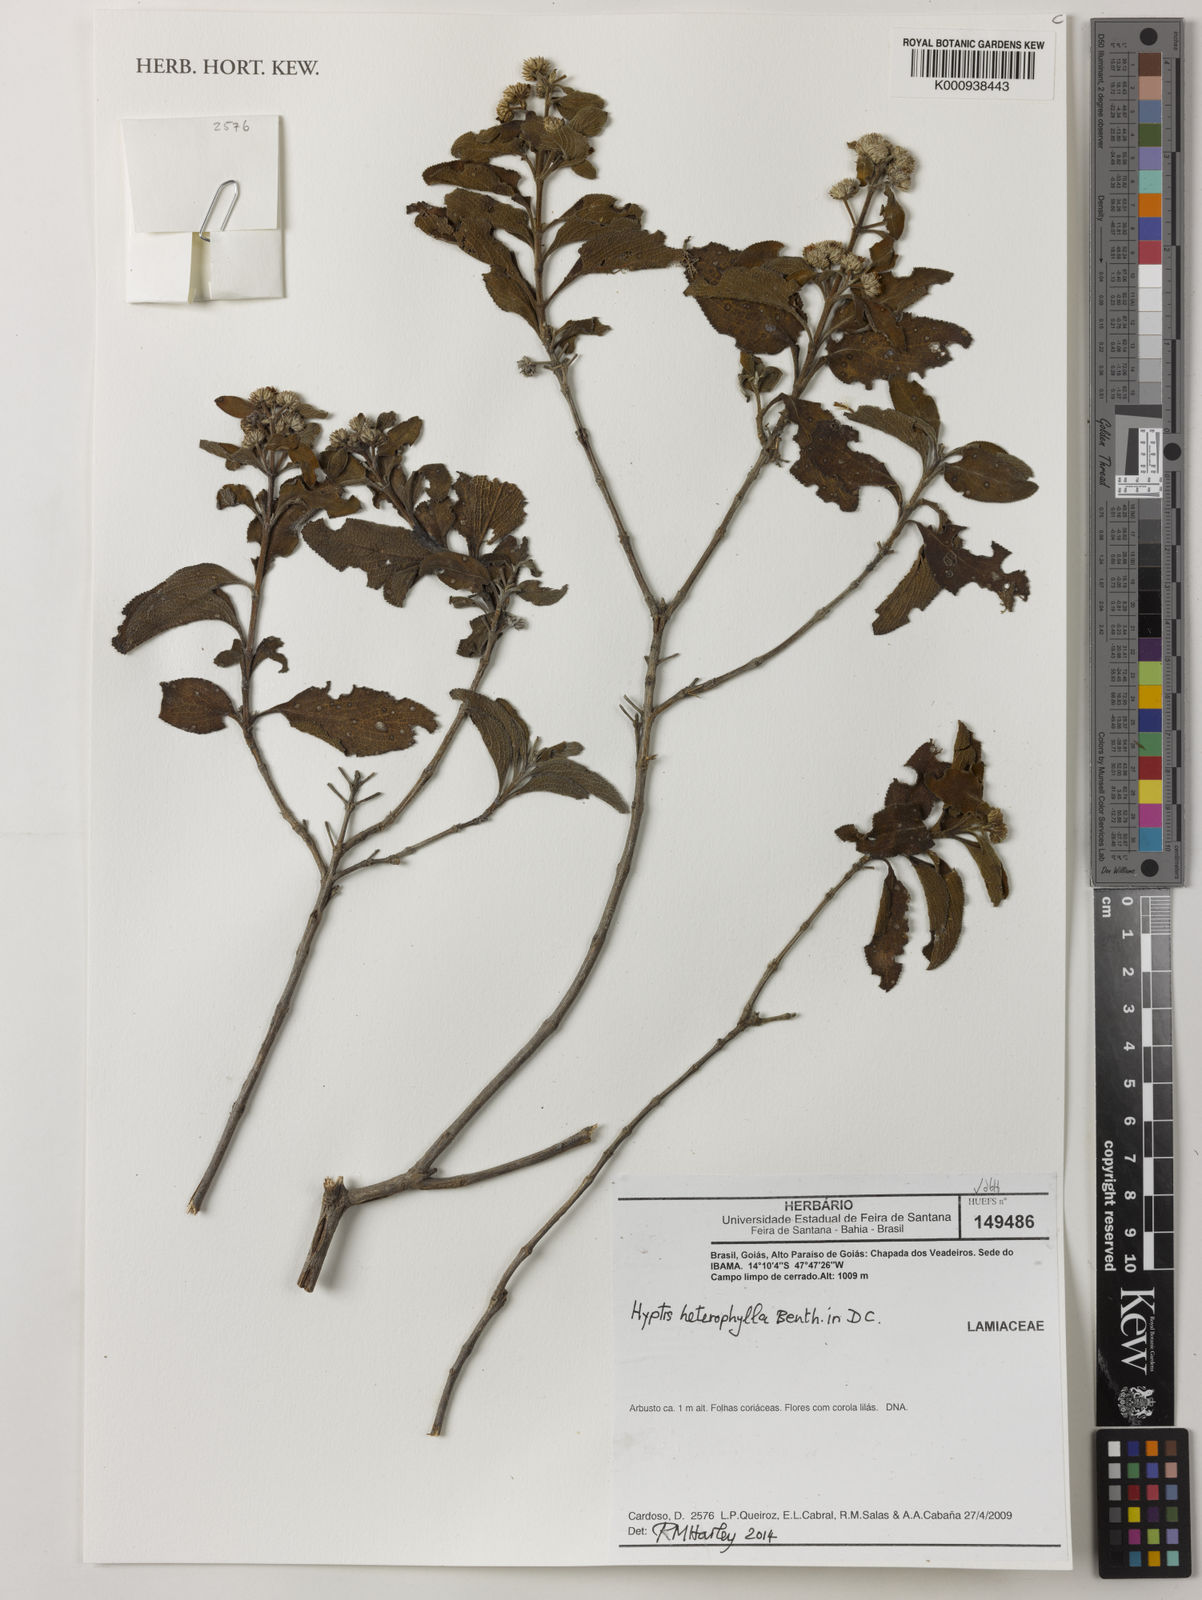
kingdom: Plantae
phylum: Tracheophyta
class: Magnoliopsida
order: Lamiales
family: Lamiaceae
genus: Hyptis
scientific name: Hyptis heterophylla
